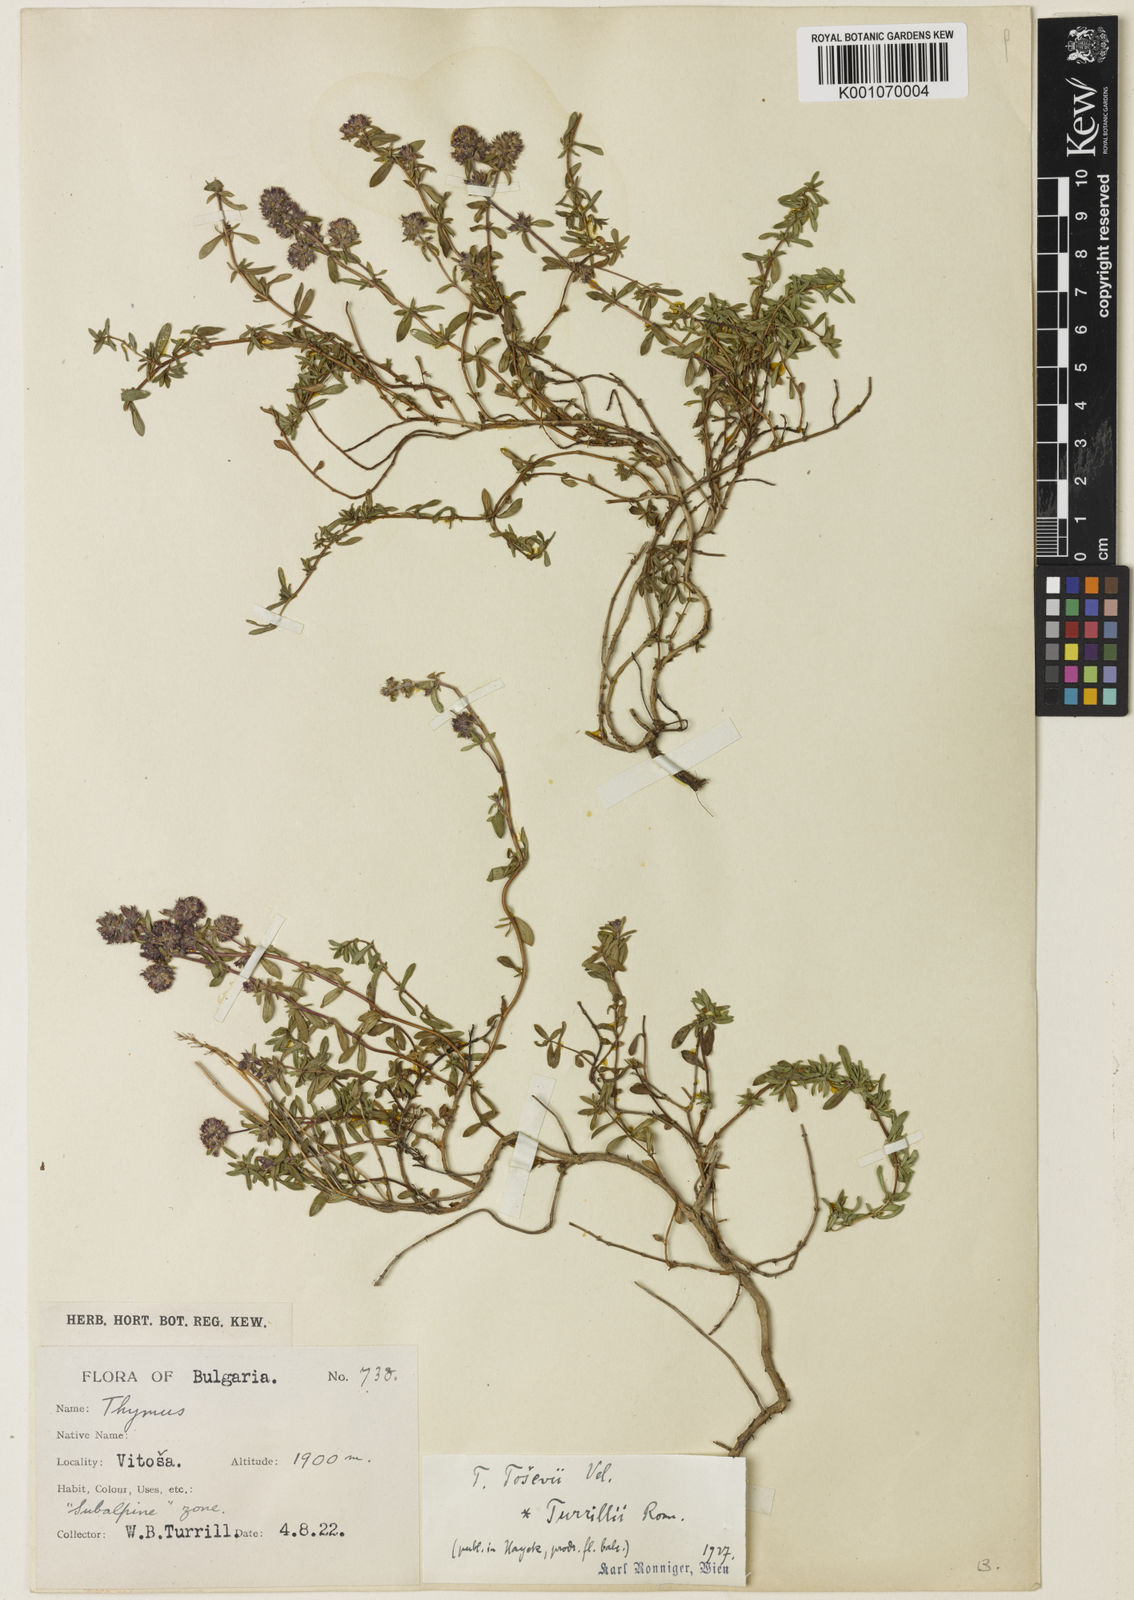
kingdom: Plantae
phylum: Tracheophyta
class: Magnoliopsida
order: Lamiales
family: Lamiaceae
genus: Thymus
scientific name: Thymus sibthorpii
